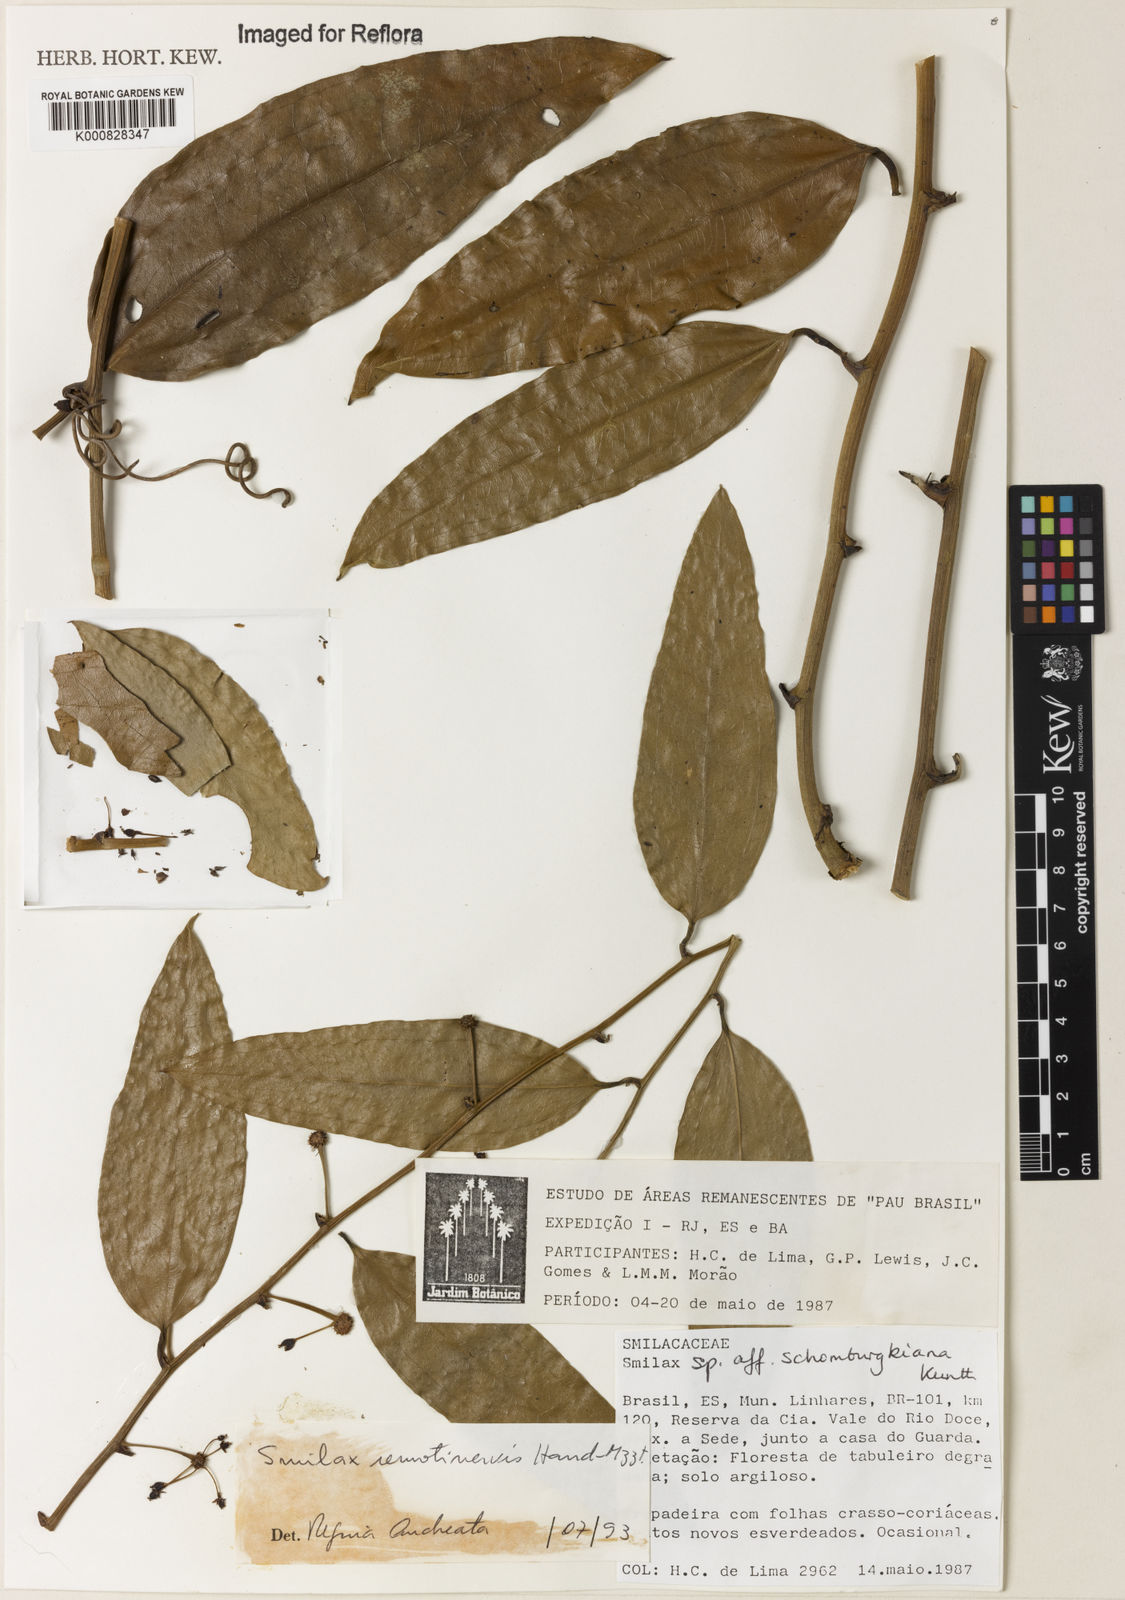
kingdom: Plantae
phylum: Tracheophyta
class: Liliopsida
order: Liliales
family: Smilacaceae
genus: Smilax
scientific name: Smilax remotinervis
